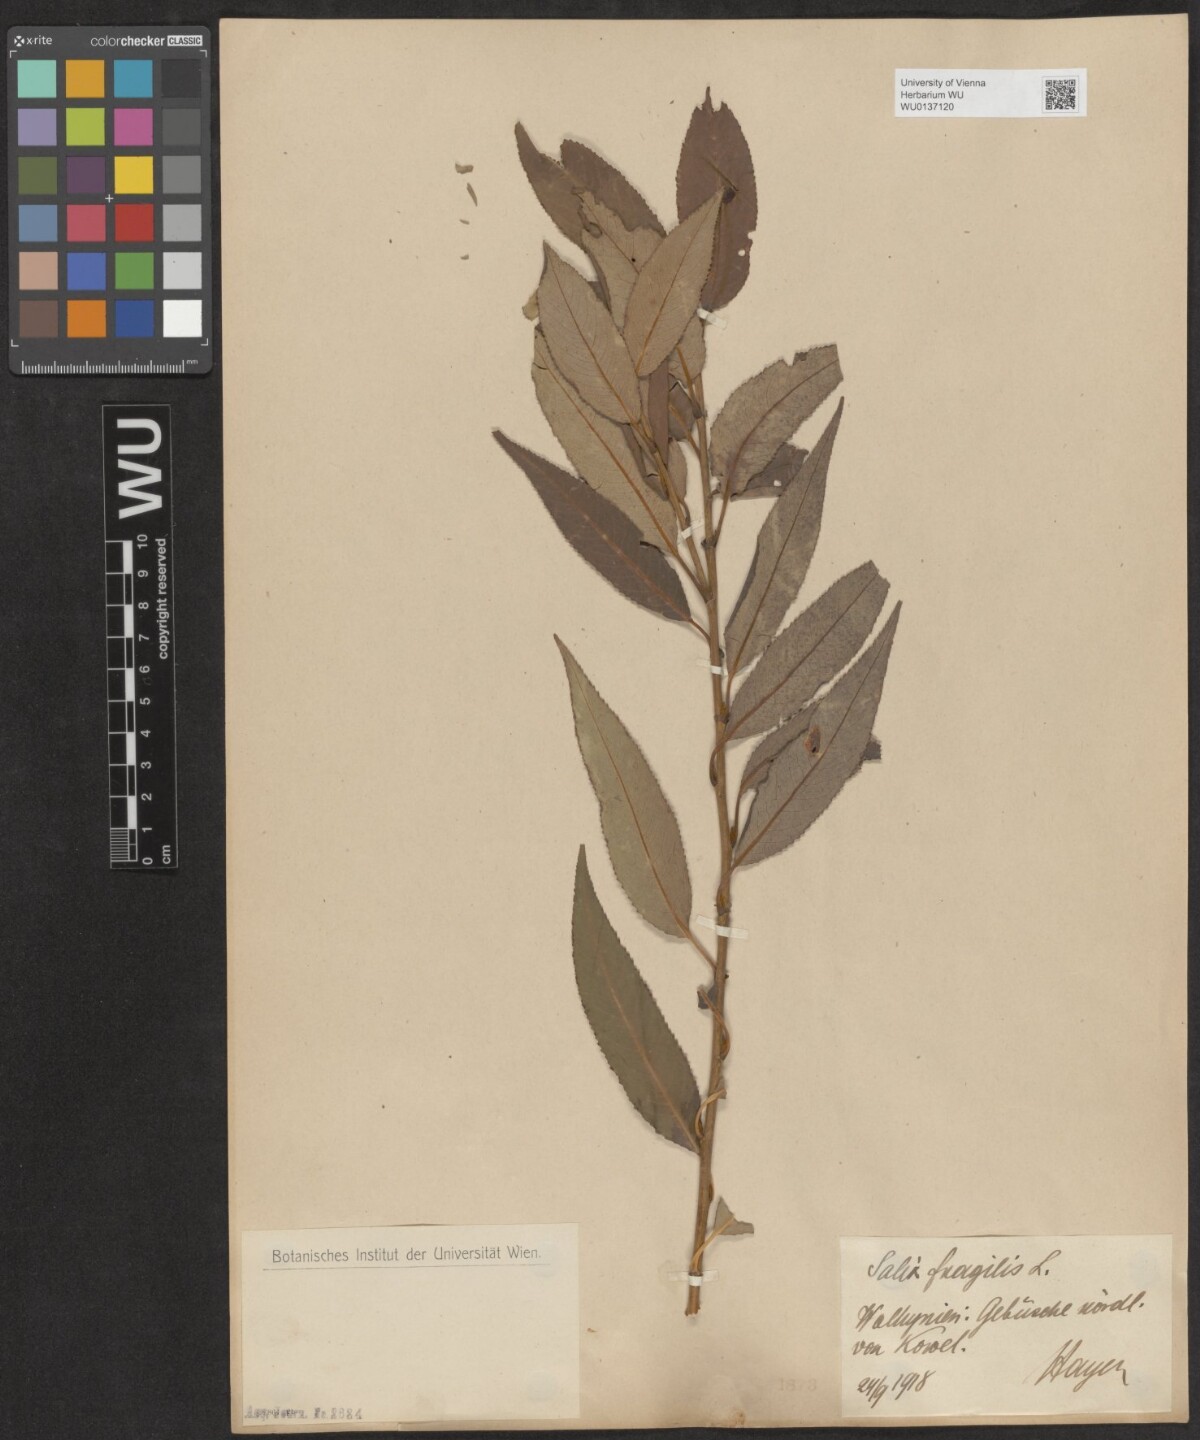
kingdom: Plantae
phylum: Tracheophyta
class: Magnoliopsida
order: Malpighiales
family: Salicaceae
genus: Salix
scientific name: Salix fragilis
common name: Crack willow
